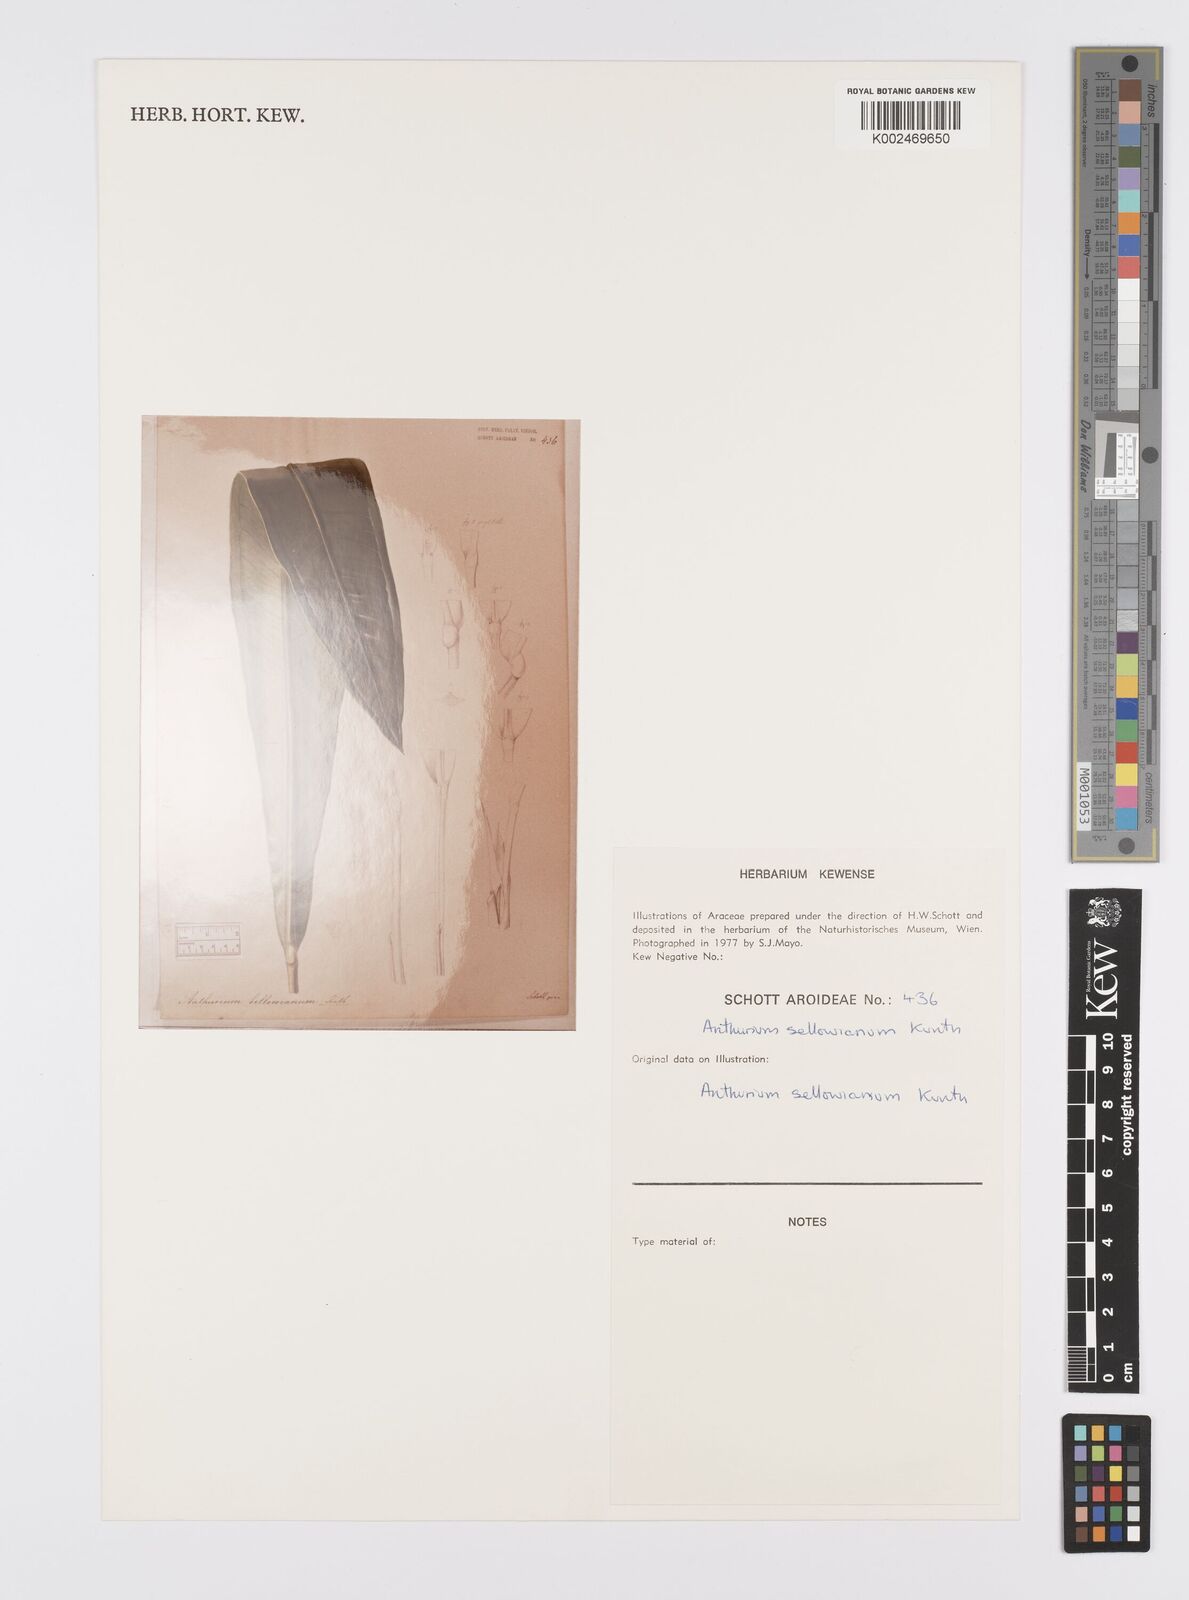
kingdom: Plantae
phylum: Tracheophyta
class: Liliopsida
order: Alismatales
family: Araceae
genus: Anthurium
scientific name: Anthurium sellowianum
